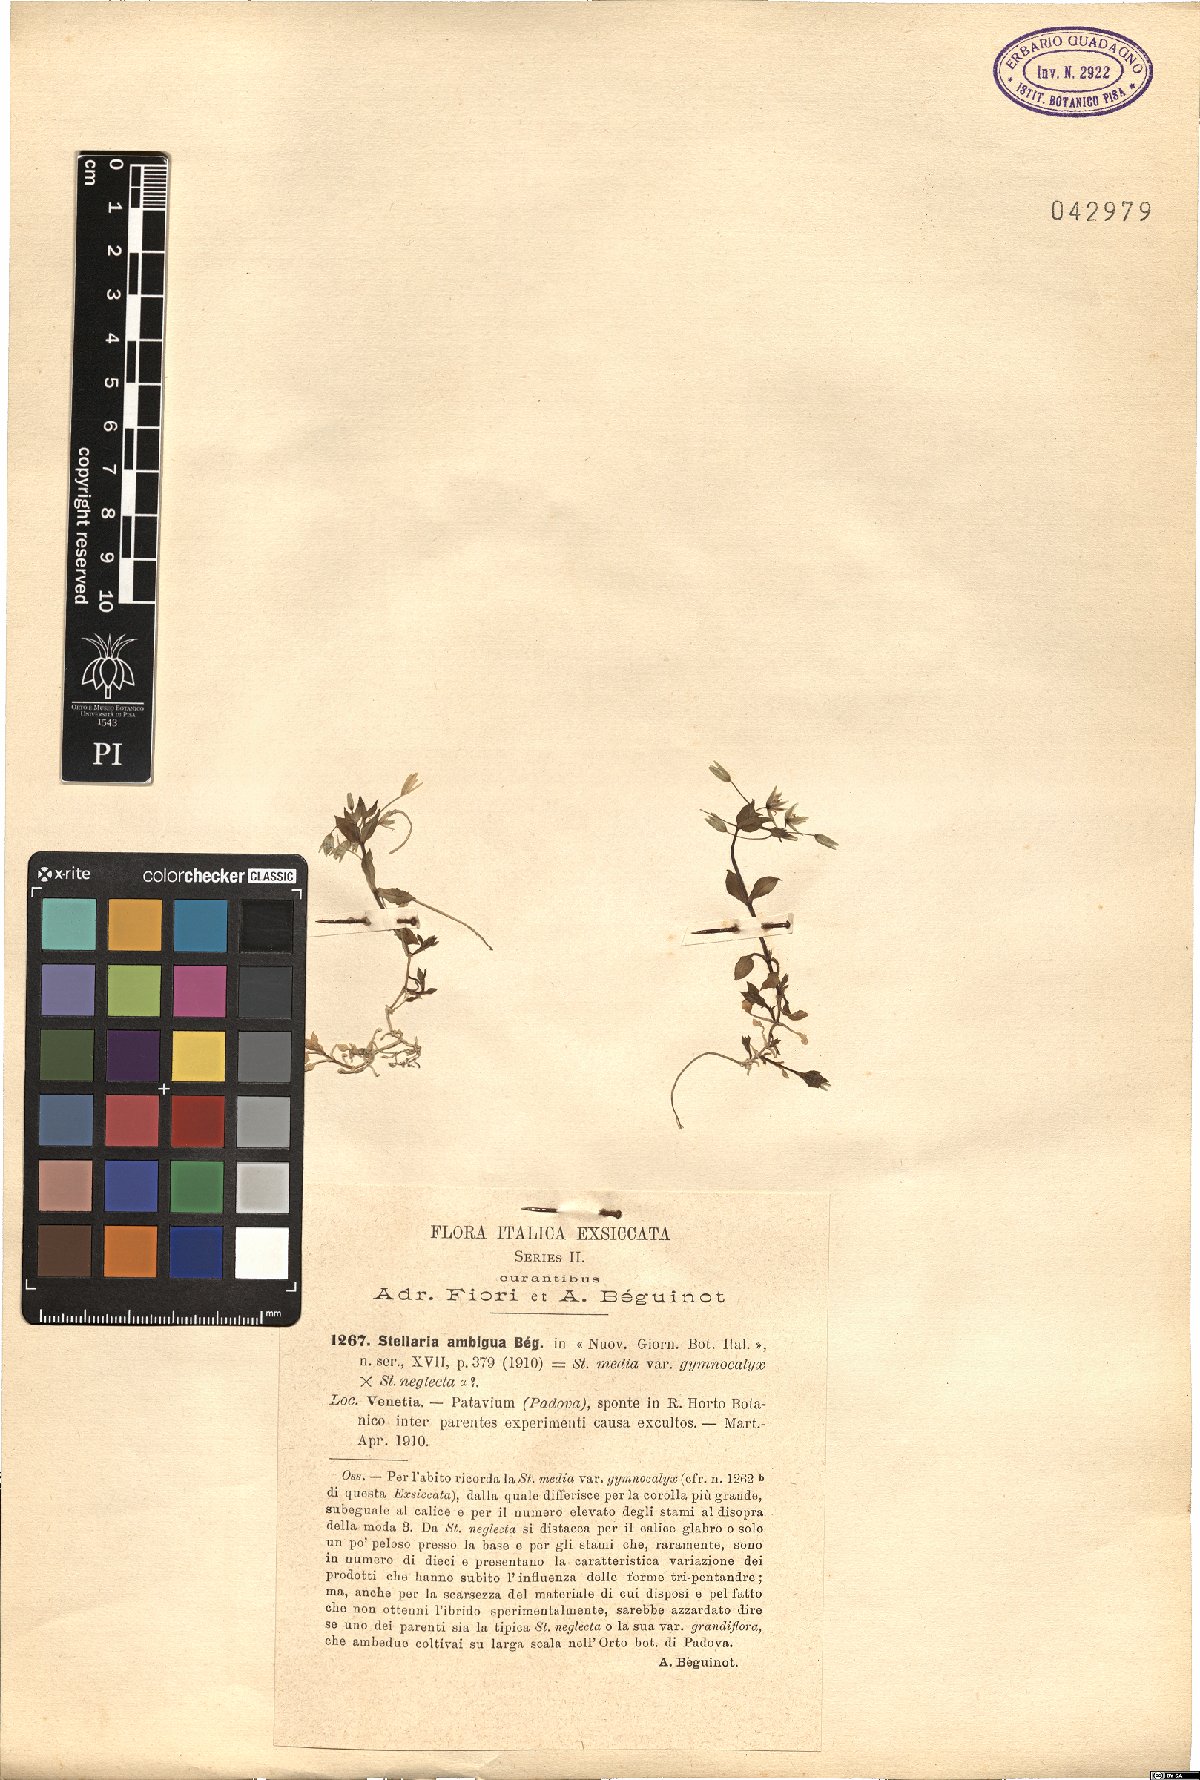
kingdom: Plantae
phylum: Tracheophyta
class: Magnoliopsida
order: Caryophyllales
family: Caryophyllaceae
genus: Stellaria
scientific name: Stellaria ambigua
